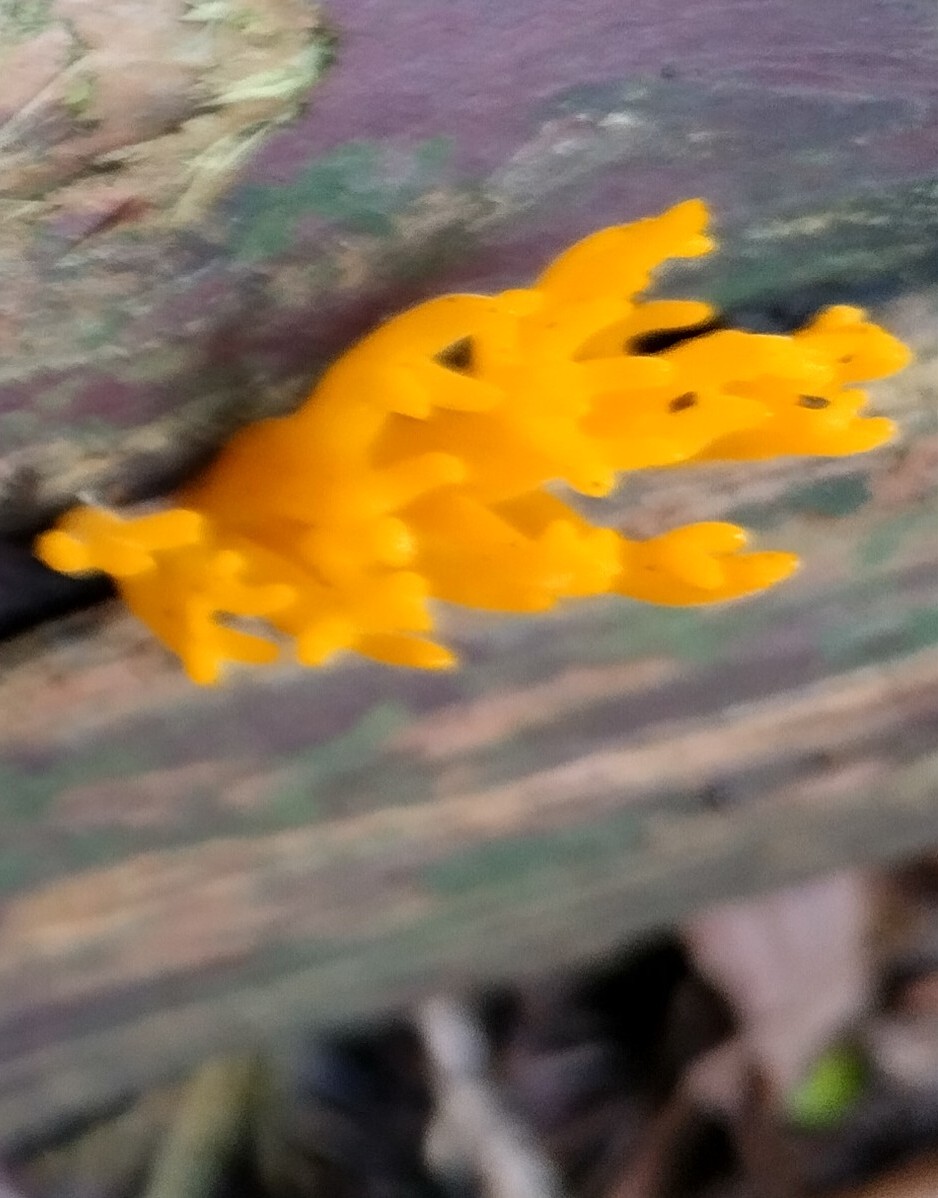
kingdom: Fungi
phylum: Basidiomycota
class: Dacrymycetes
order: Dacrymycetales
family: Dacrymycetaceae
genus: Calocera
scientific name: Calocera viscosa
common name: almindelig guldgaffel
